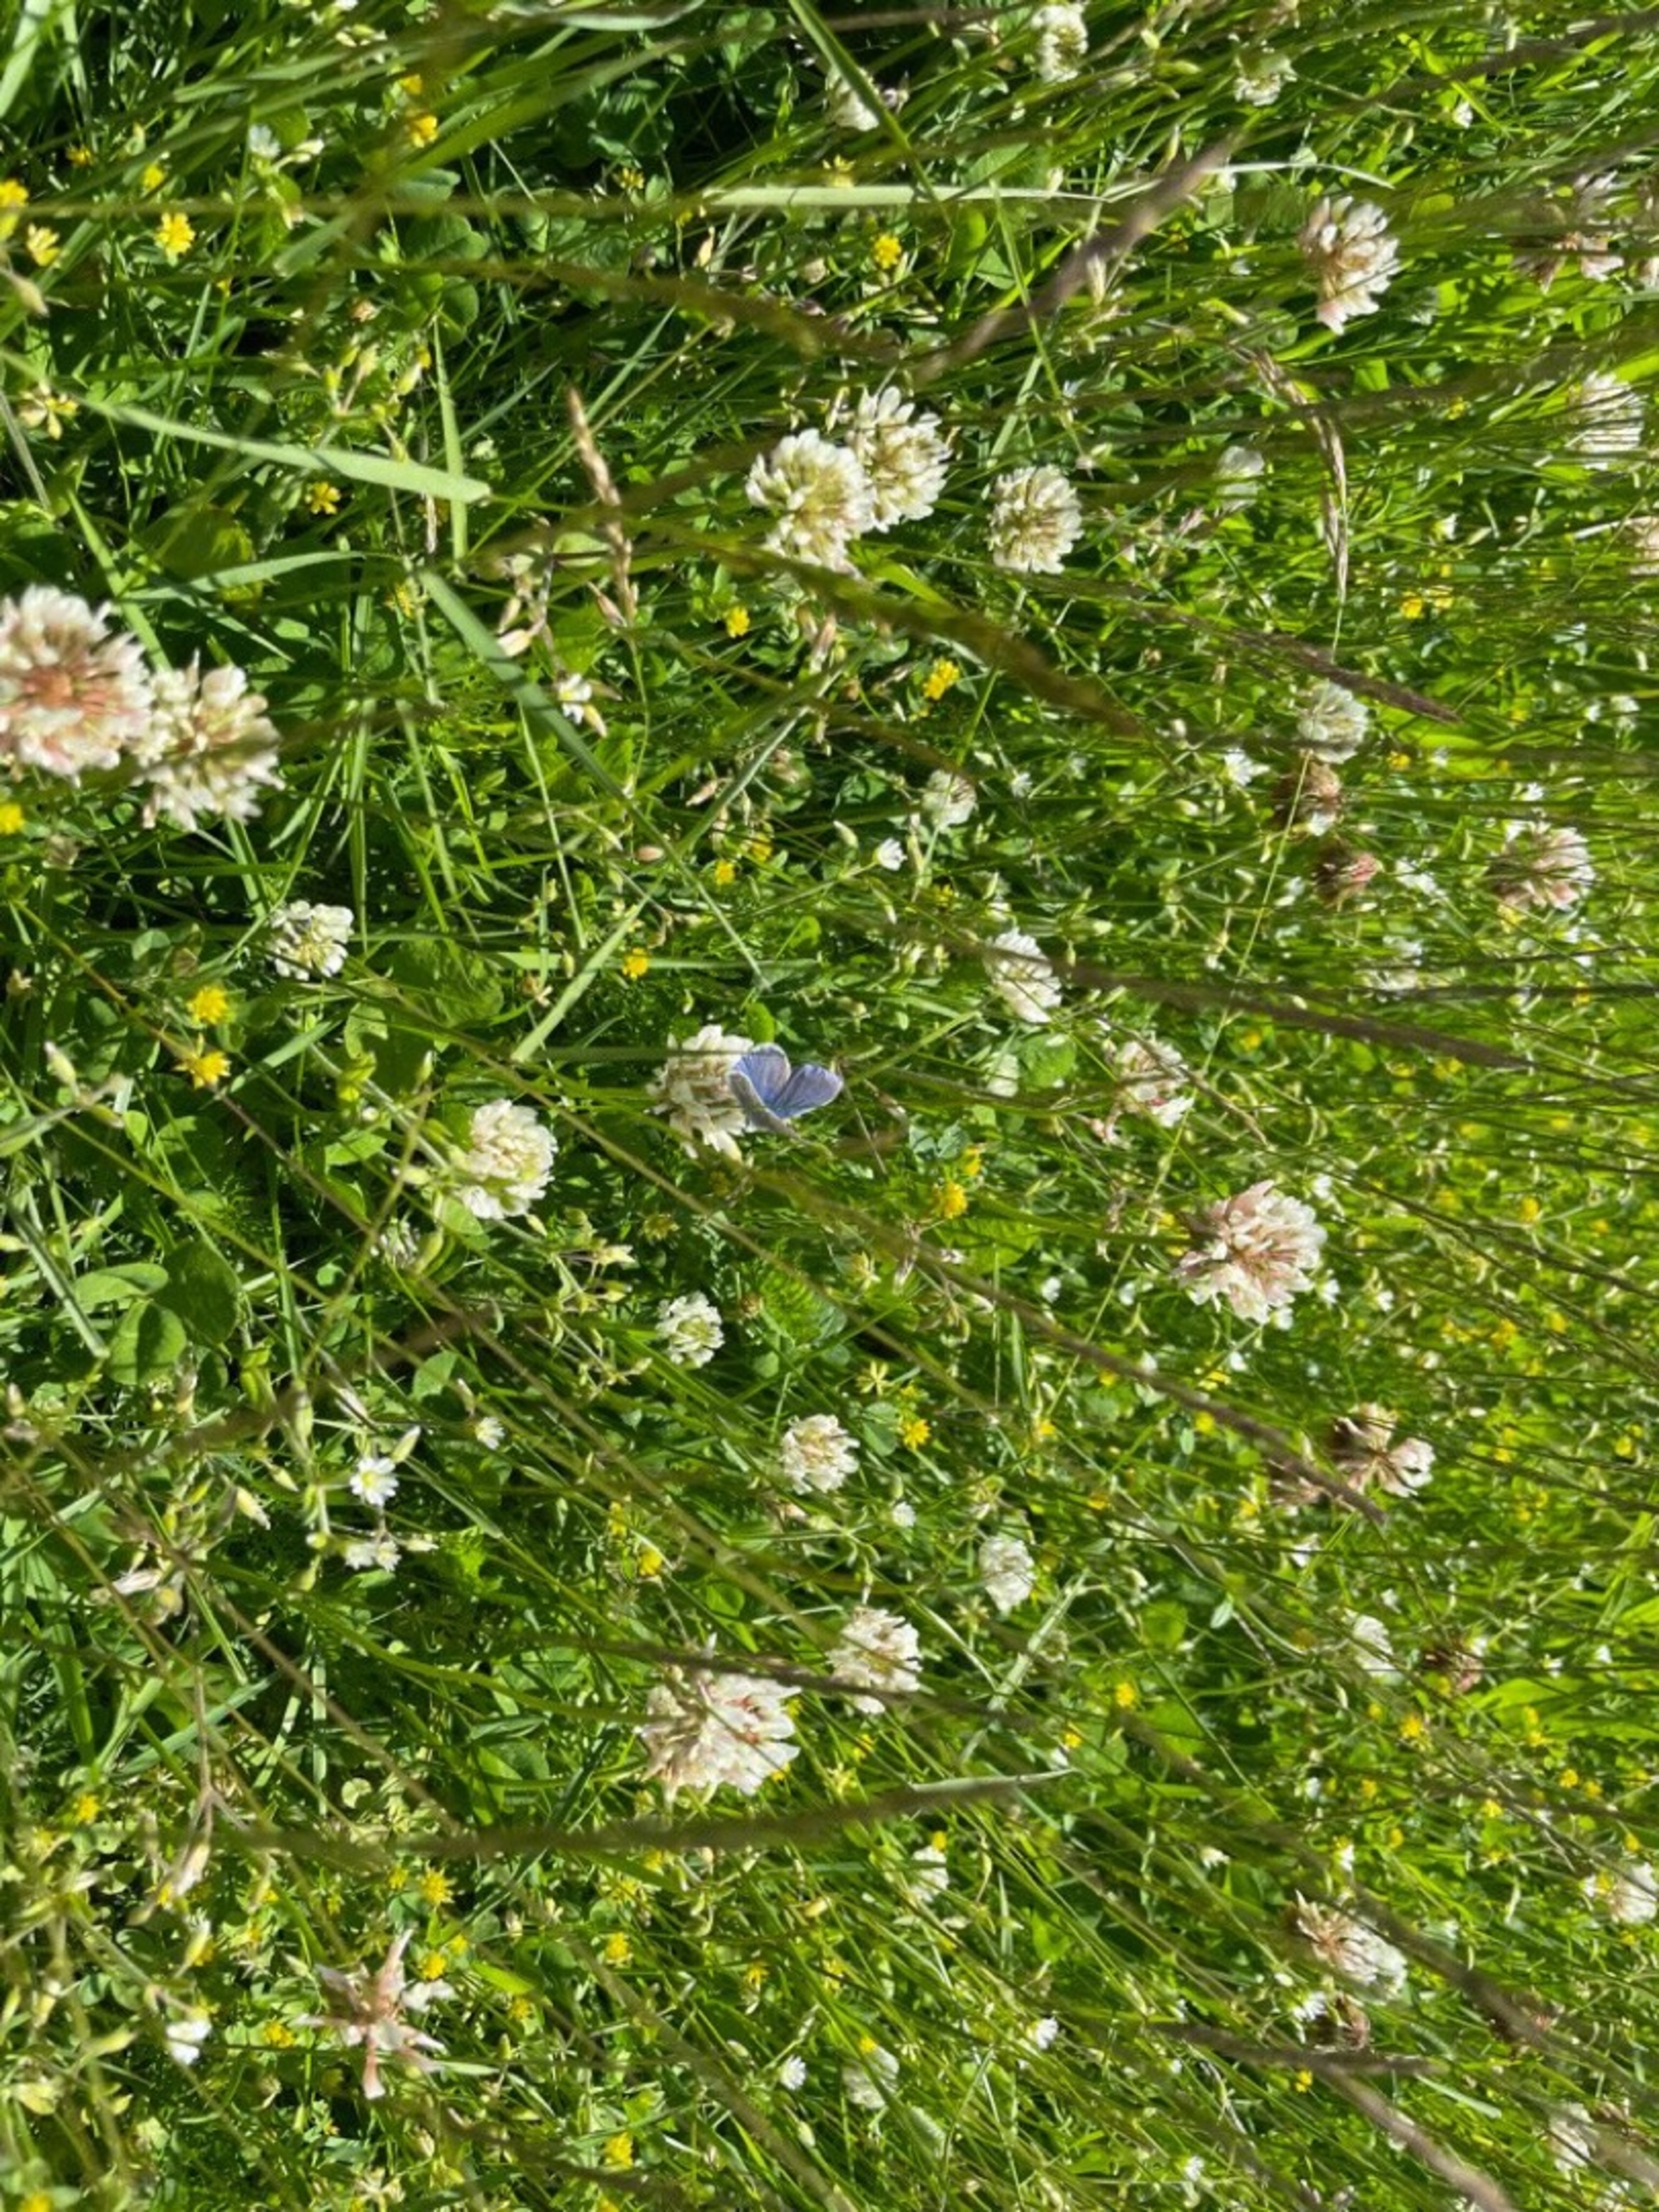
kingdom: Animalia
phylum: Arthropoda
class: Insecta
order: Lepidoptera
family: Lycaenidae
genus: Polyommatus
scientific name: Polyommatus icarus
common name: Almindelig blåfugl
